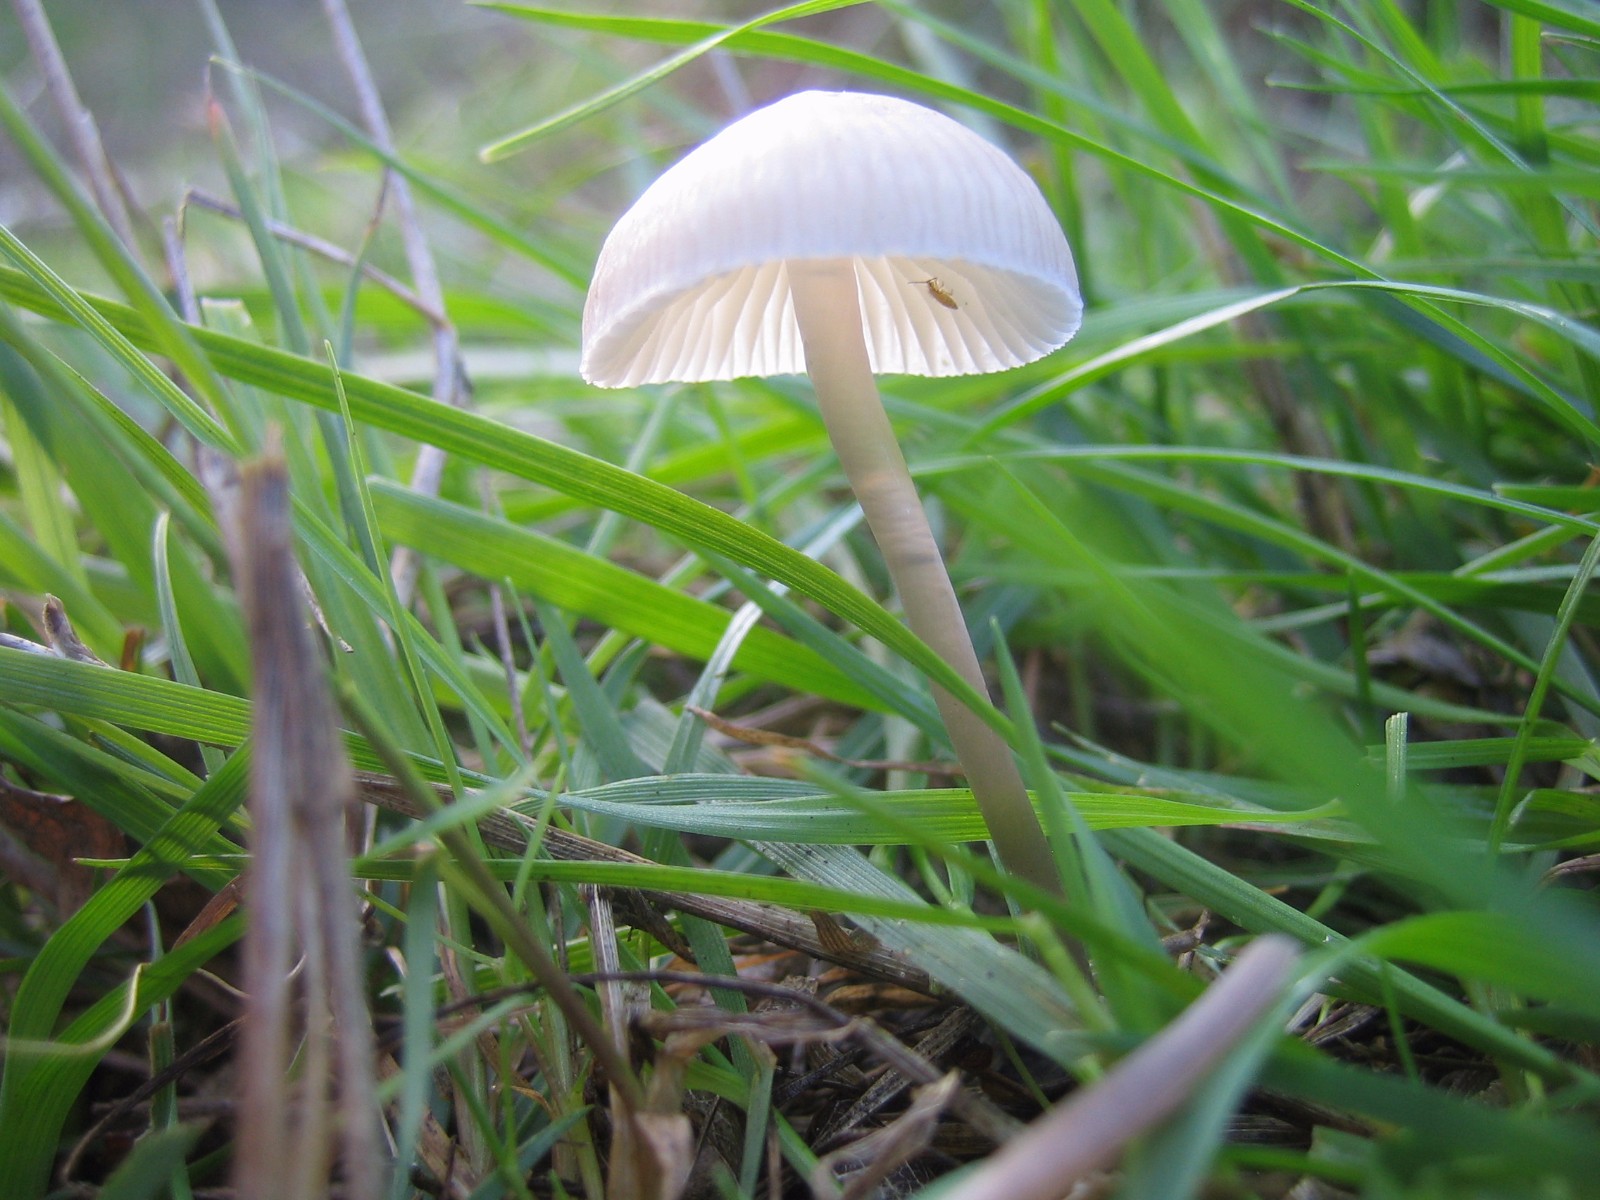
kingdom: Fungi
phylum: Basidiomycota
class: Agaricomycetes
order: Agaricales
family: Mycenaceae
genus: Mycena
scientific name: Mycena
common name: huesvamp
